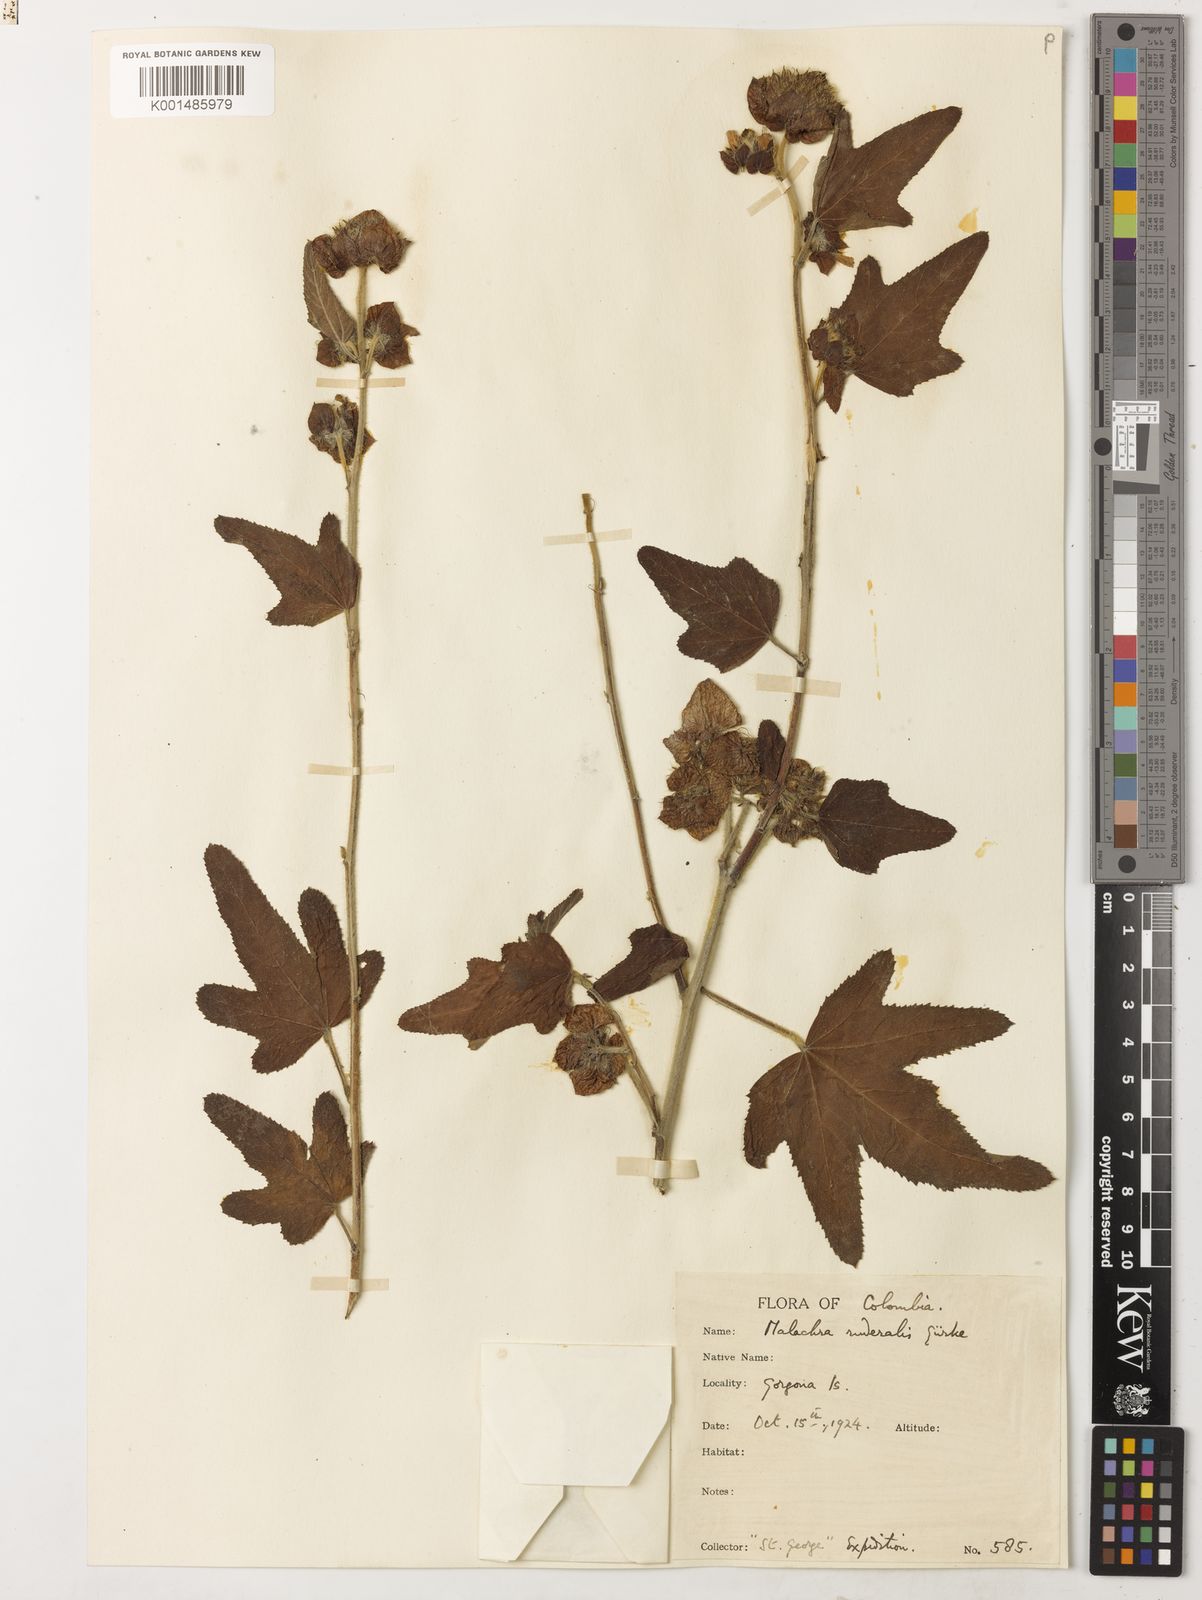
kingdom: Plantae
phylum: Tracheophyta
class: Magnoliopsida
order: Malvales
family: Malvaceae
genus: Malachra
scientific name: Malachra ruderalis
